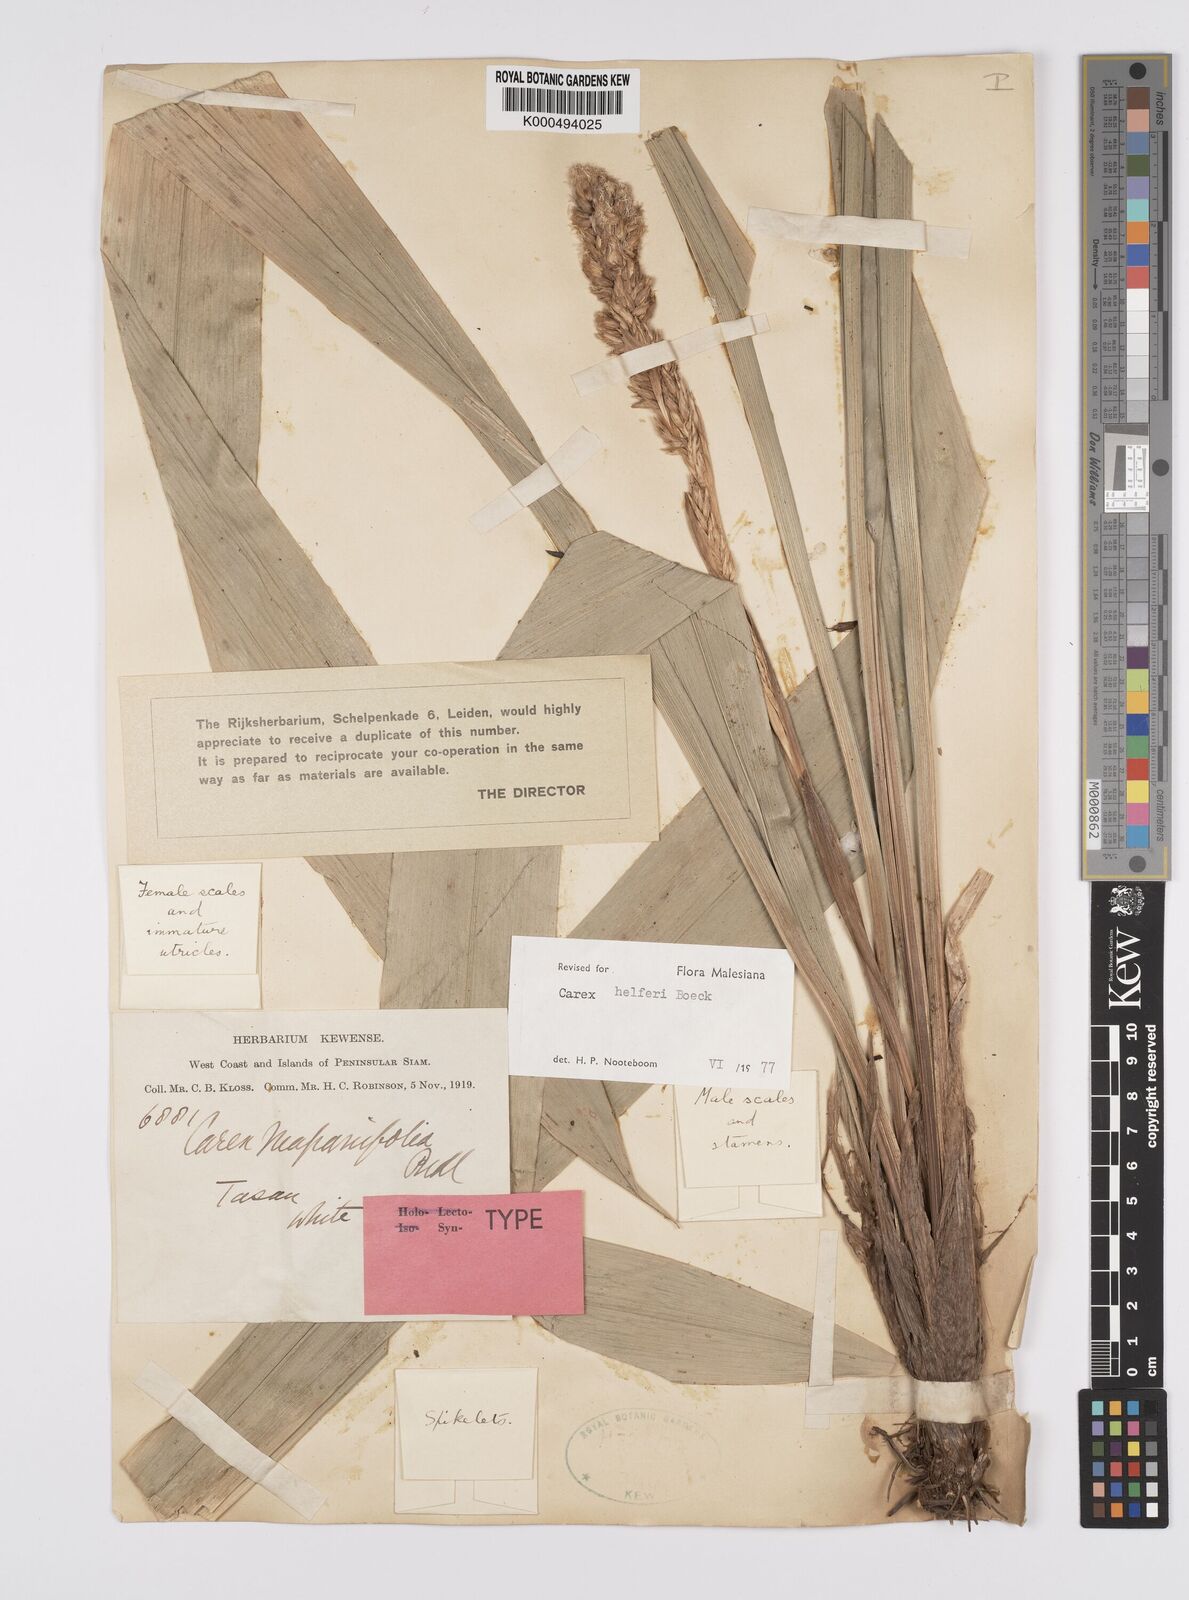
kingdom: Plantae
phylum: Tracheophyta
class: Liliopsida
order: Poales
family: Cyperaceae
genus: Carex
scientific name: Carex helferi
